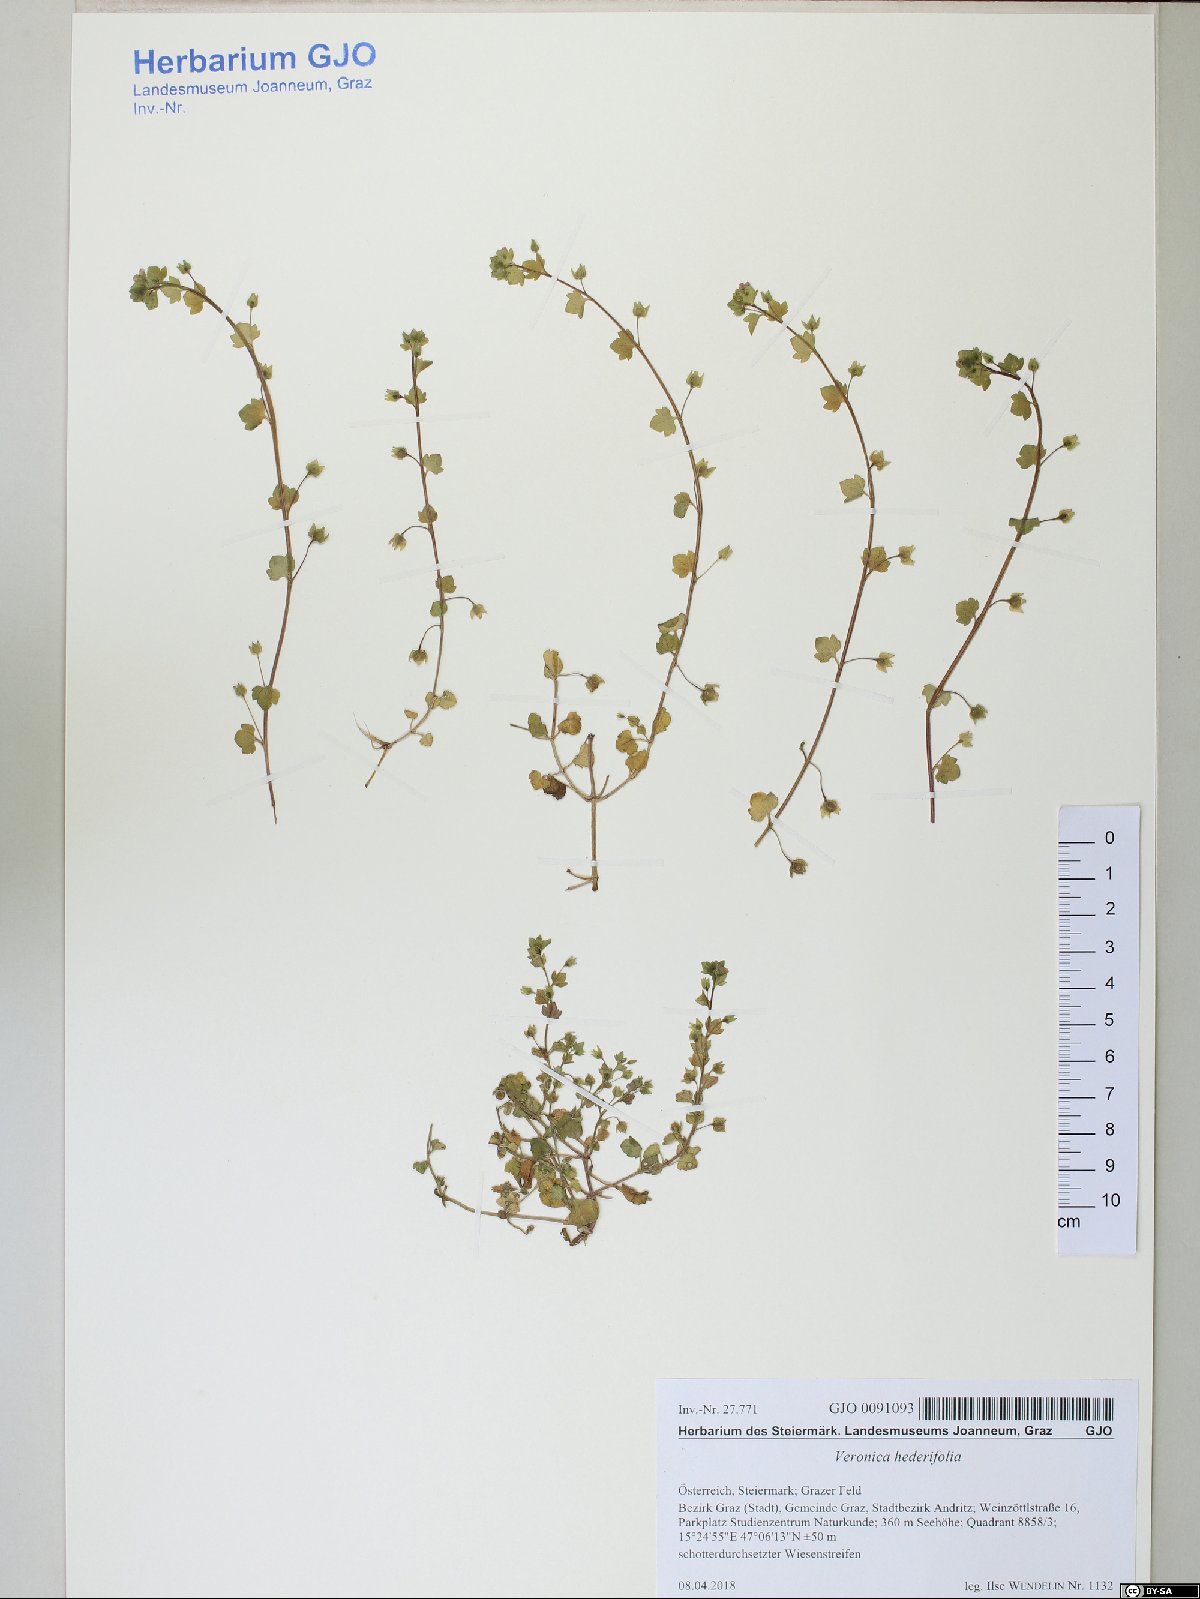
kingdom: Plantae
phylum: Tracheophyta
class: Magnoliopsida
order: Lamiales
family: Plantaginaceae
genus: Veronica
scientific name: Veronica hederifolia
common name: Ivy-leaved speedwell
